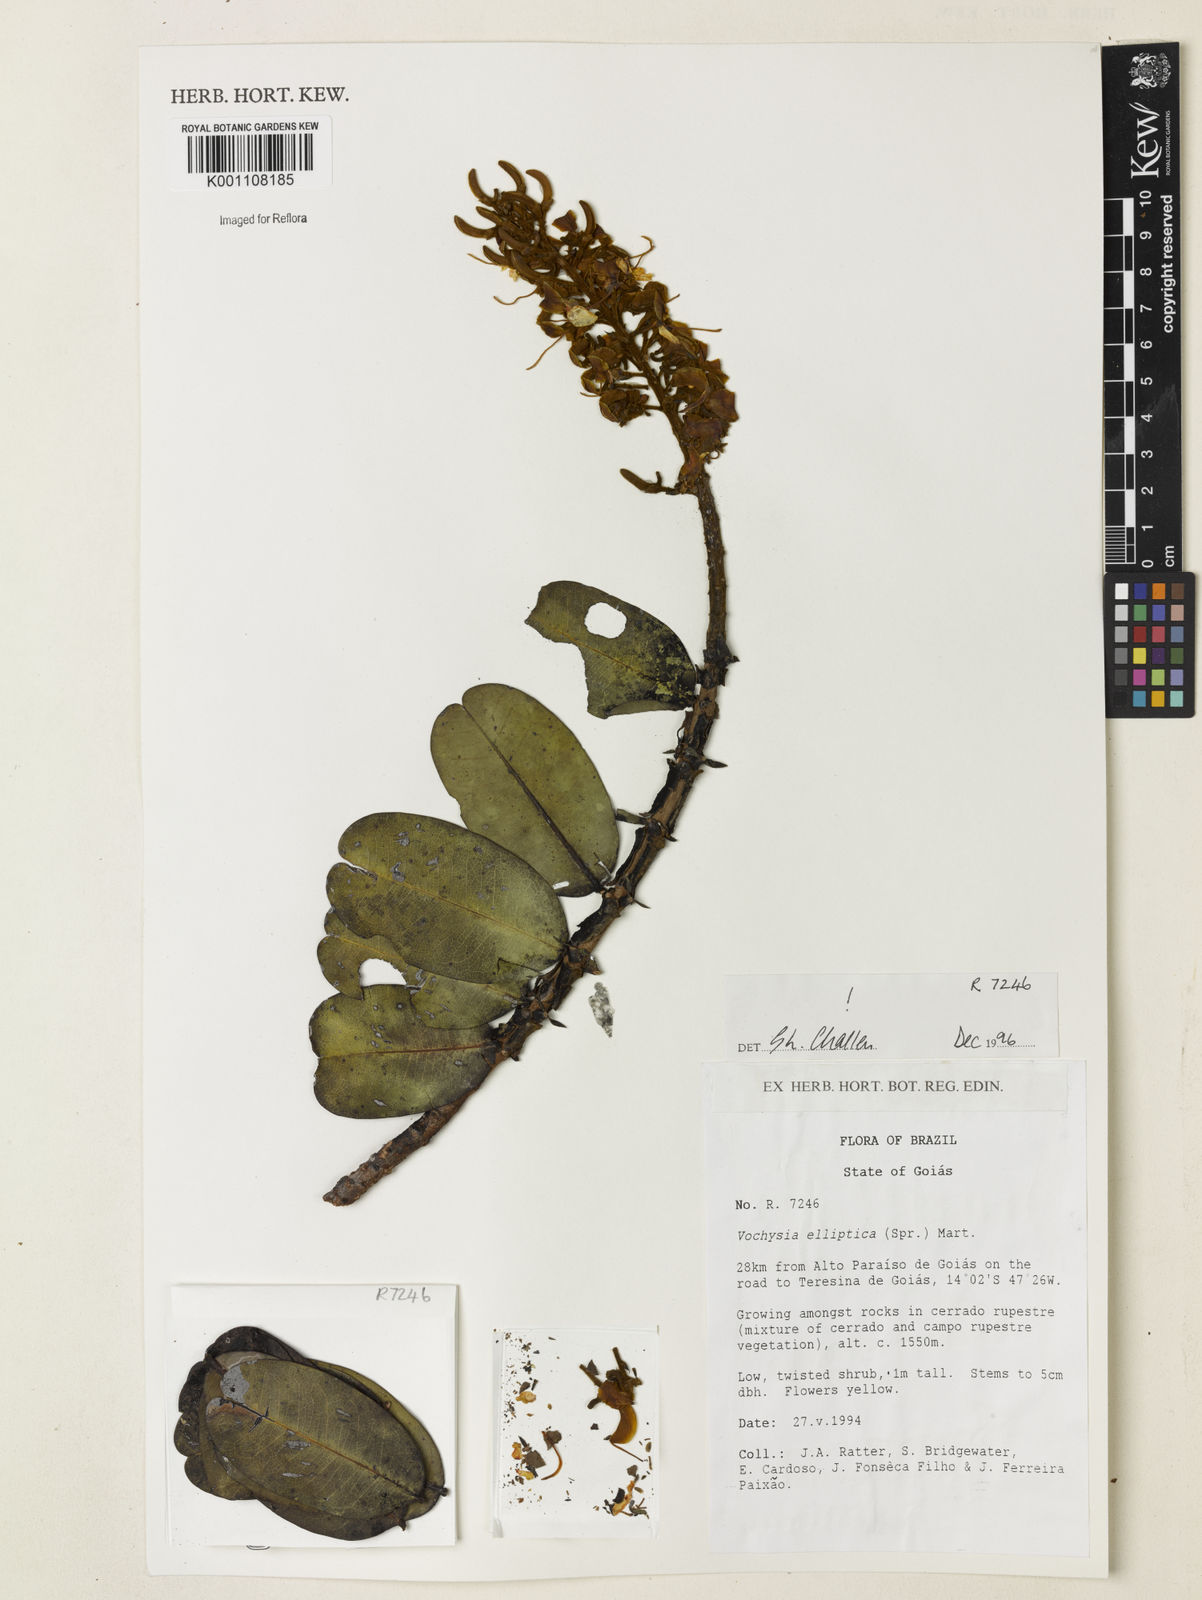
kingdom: Plantae
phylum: Tracheophyta
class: Magnoliopsida
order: Myrtales
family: Vochysiaceae
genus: Vochysia
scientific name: Vochysia elliptica
